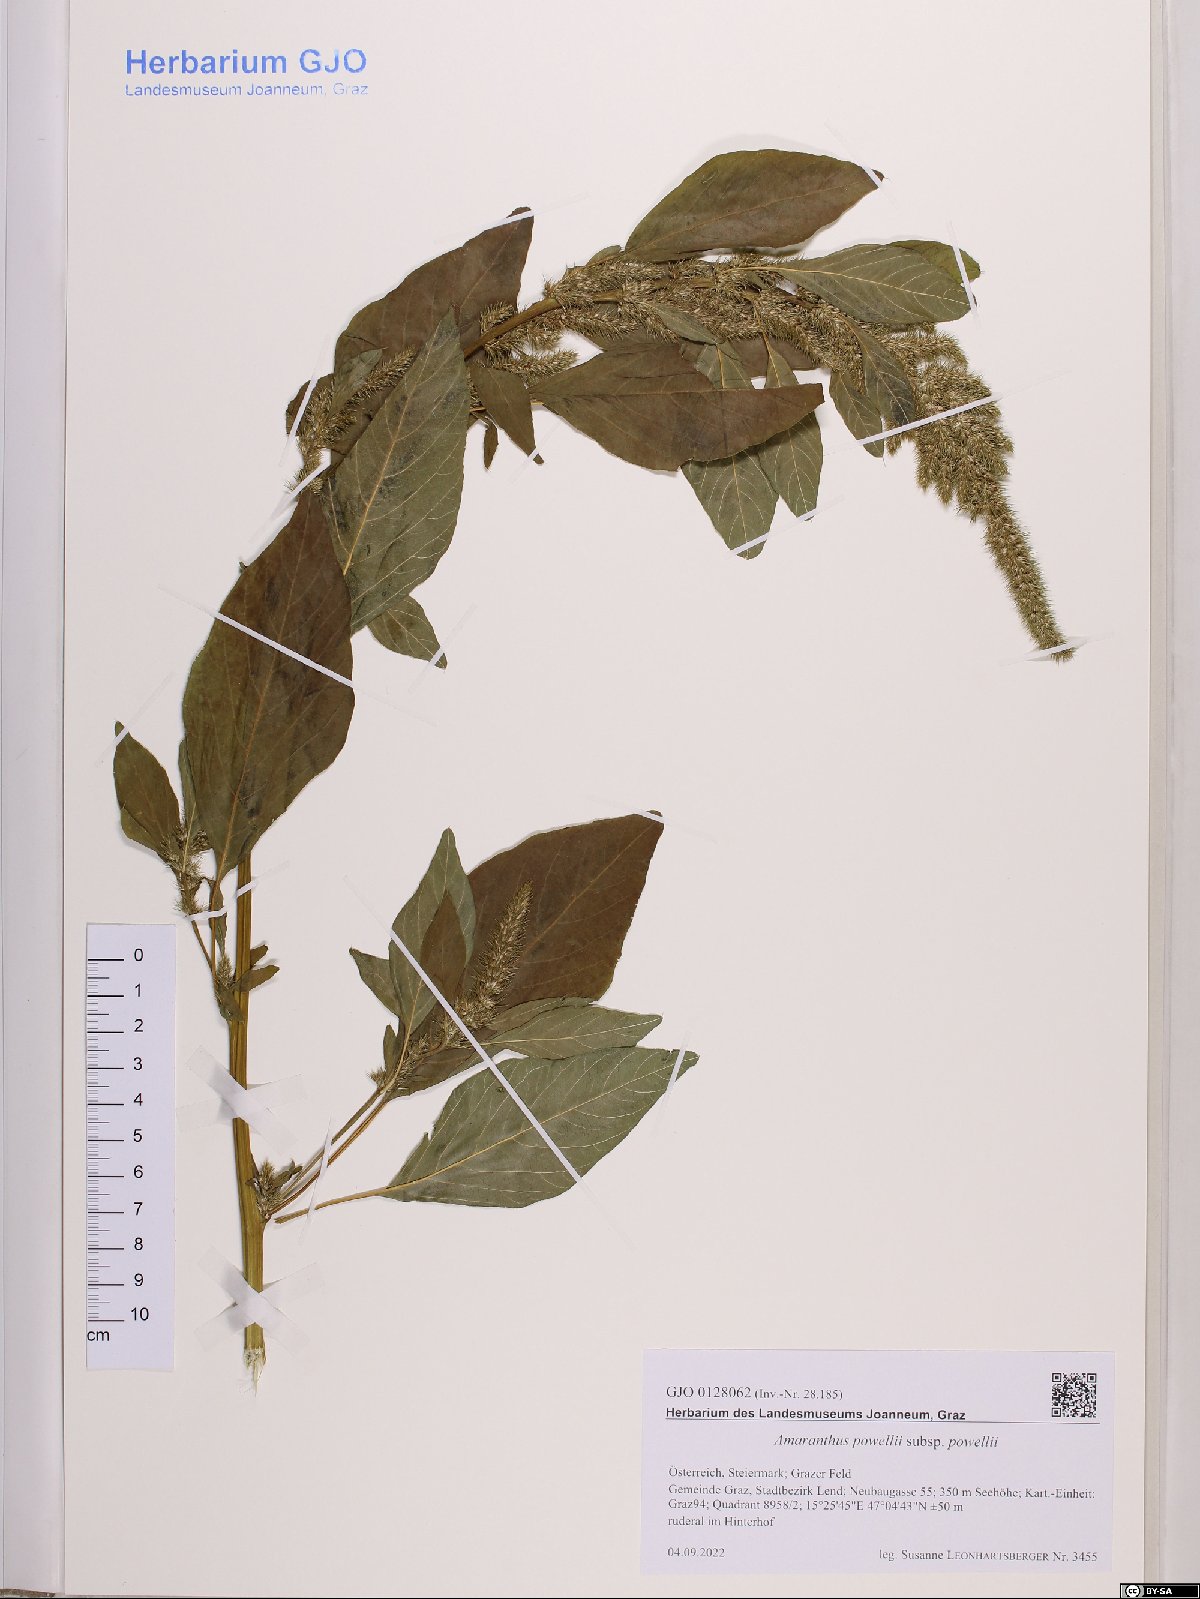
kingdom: Plantae
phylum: Tracheophyta
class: Magnoliopsida
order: Caryophyllales
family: Amaranthaceae
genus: Amaranthus
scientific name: Amaranthus powellii
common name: Powell's amaranth
